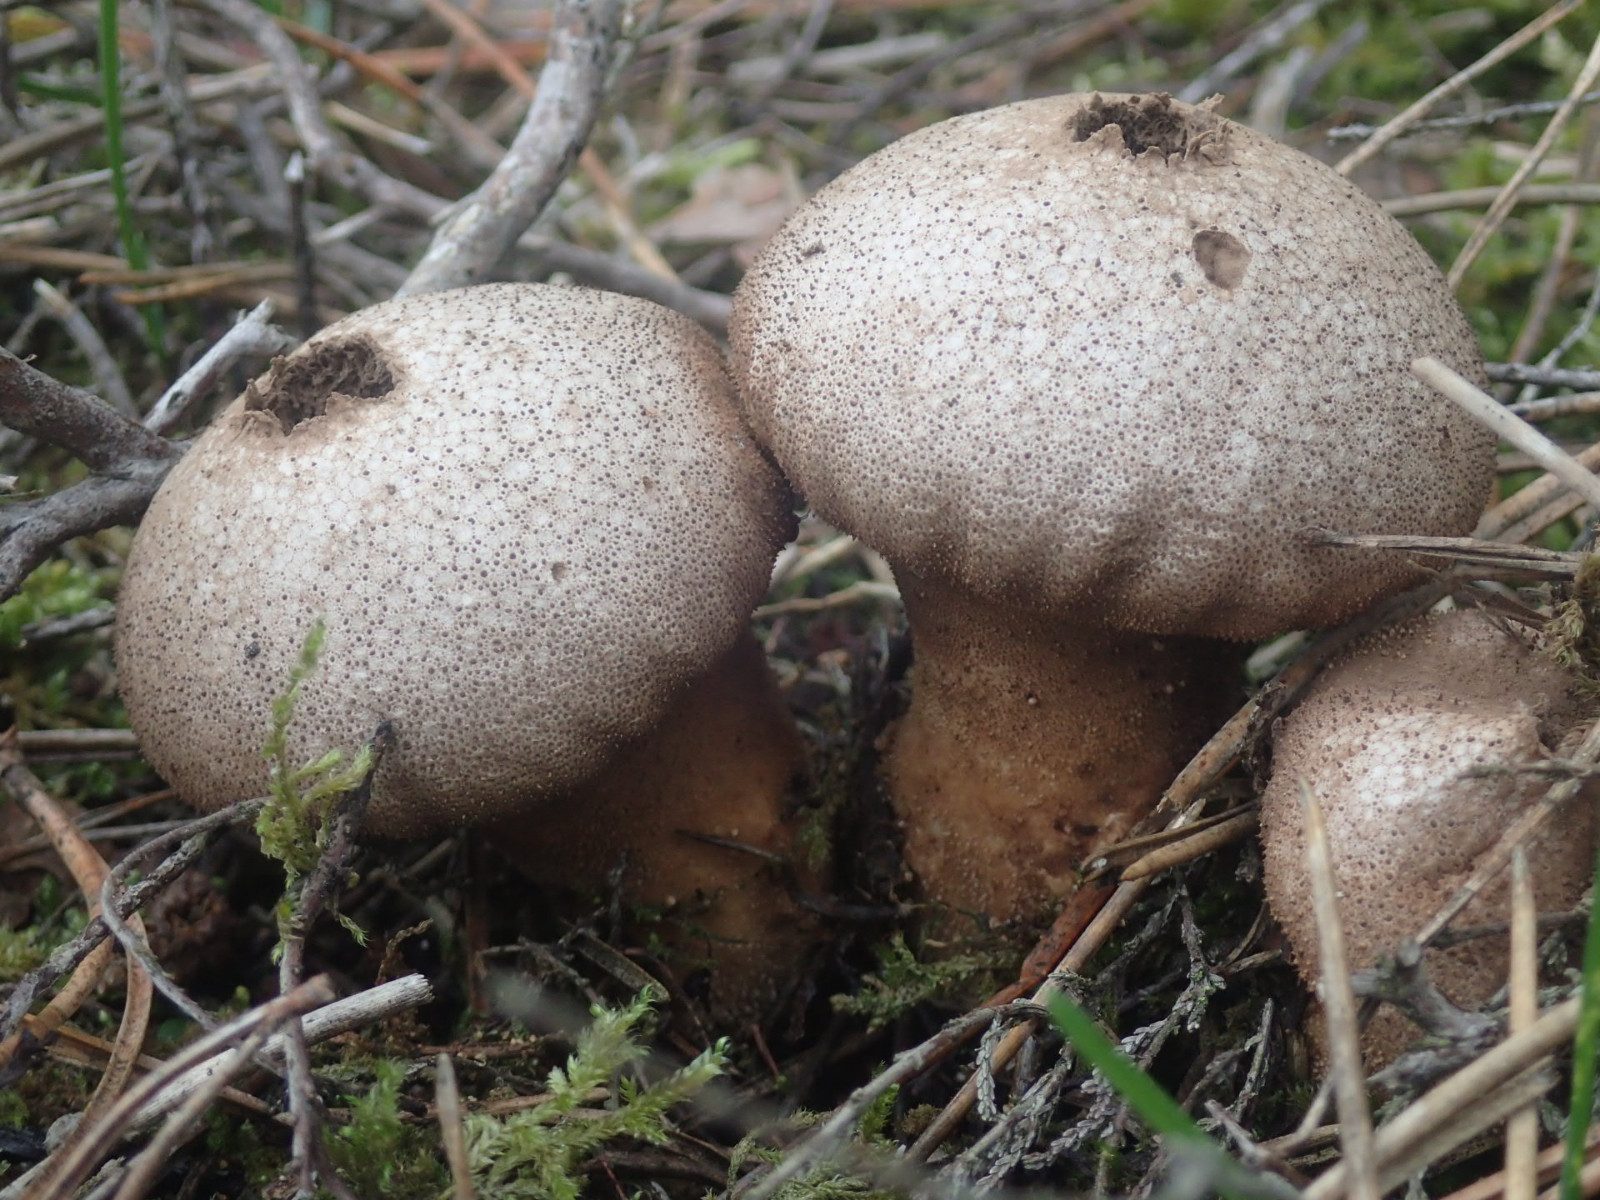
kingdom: Fungi
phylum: Basidiomycota
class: Agaricomycetes
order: Agaricales
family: Lycoperdaceae
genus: Lycoperdon
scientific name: Lycoperdon perlatum
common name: krystal-støvbold
